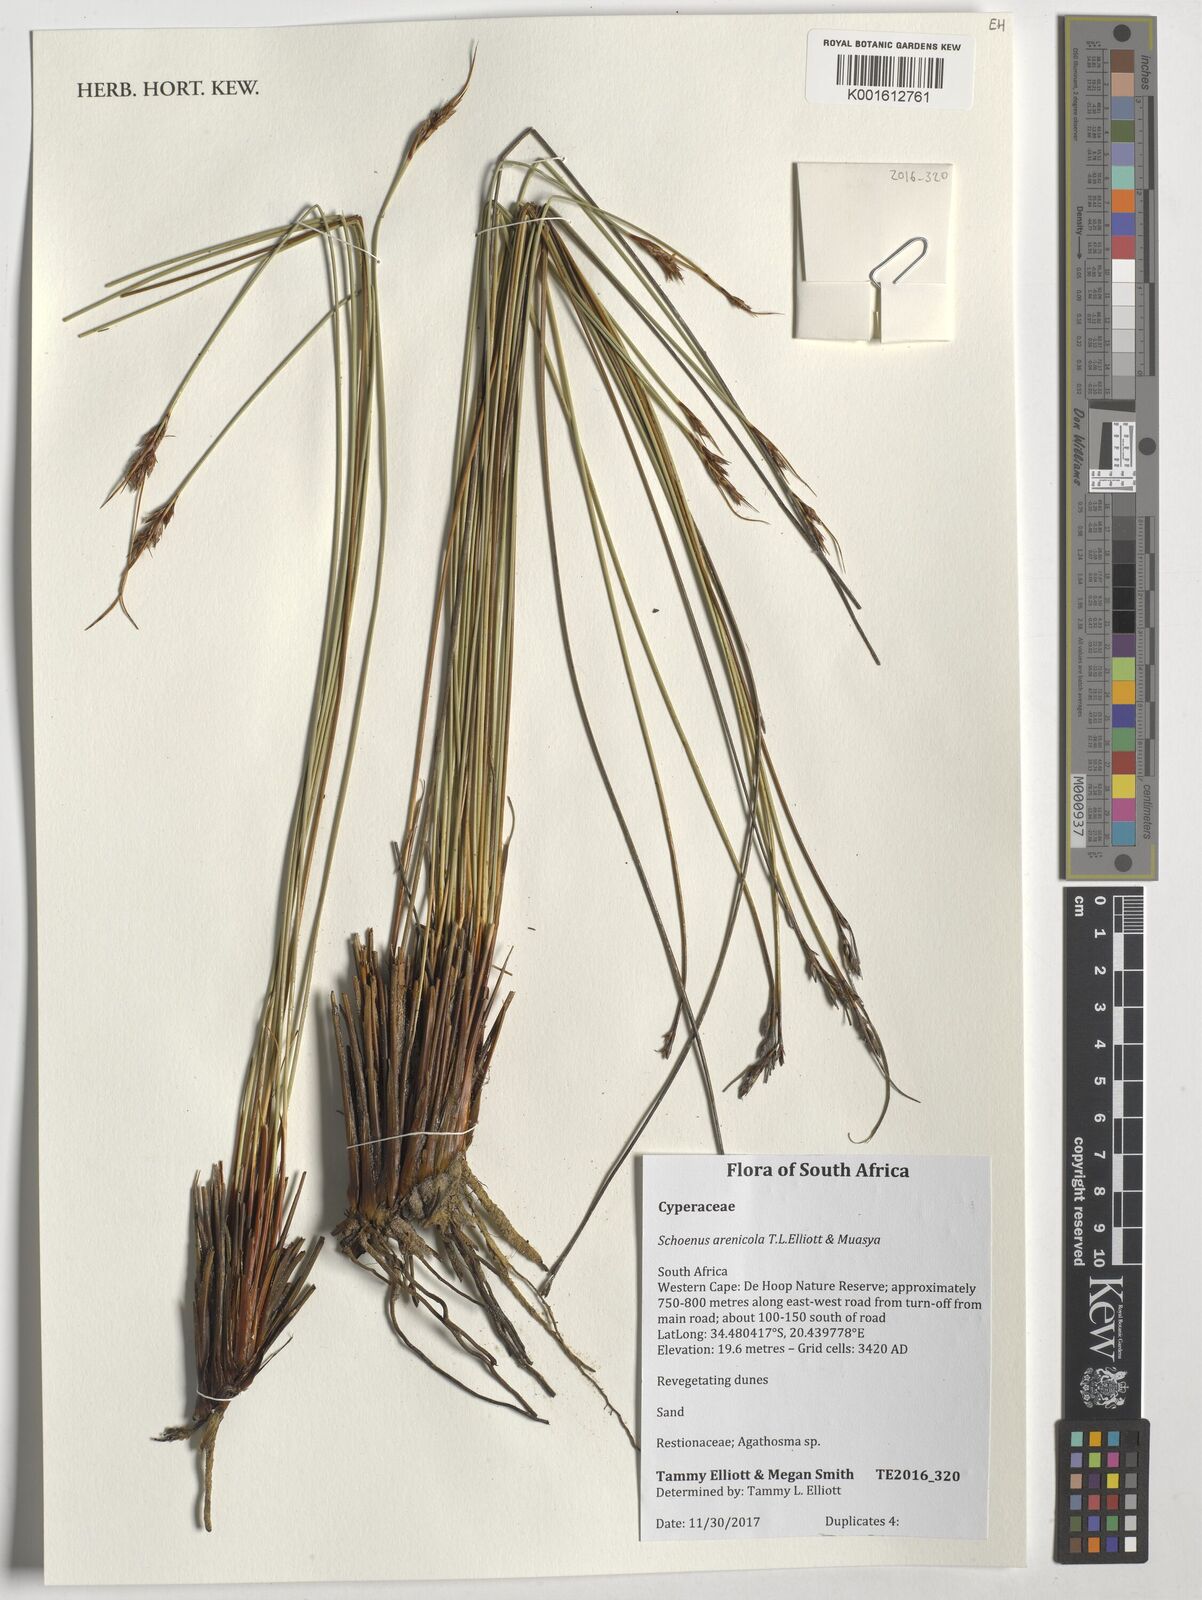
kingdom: Plantae
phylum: Tracheophyta
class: Liliopsida
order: Poales
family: Cyperaceae
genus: Schoenus
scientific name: Schoenus arenicola
